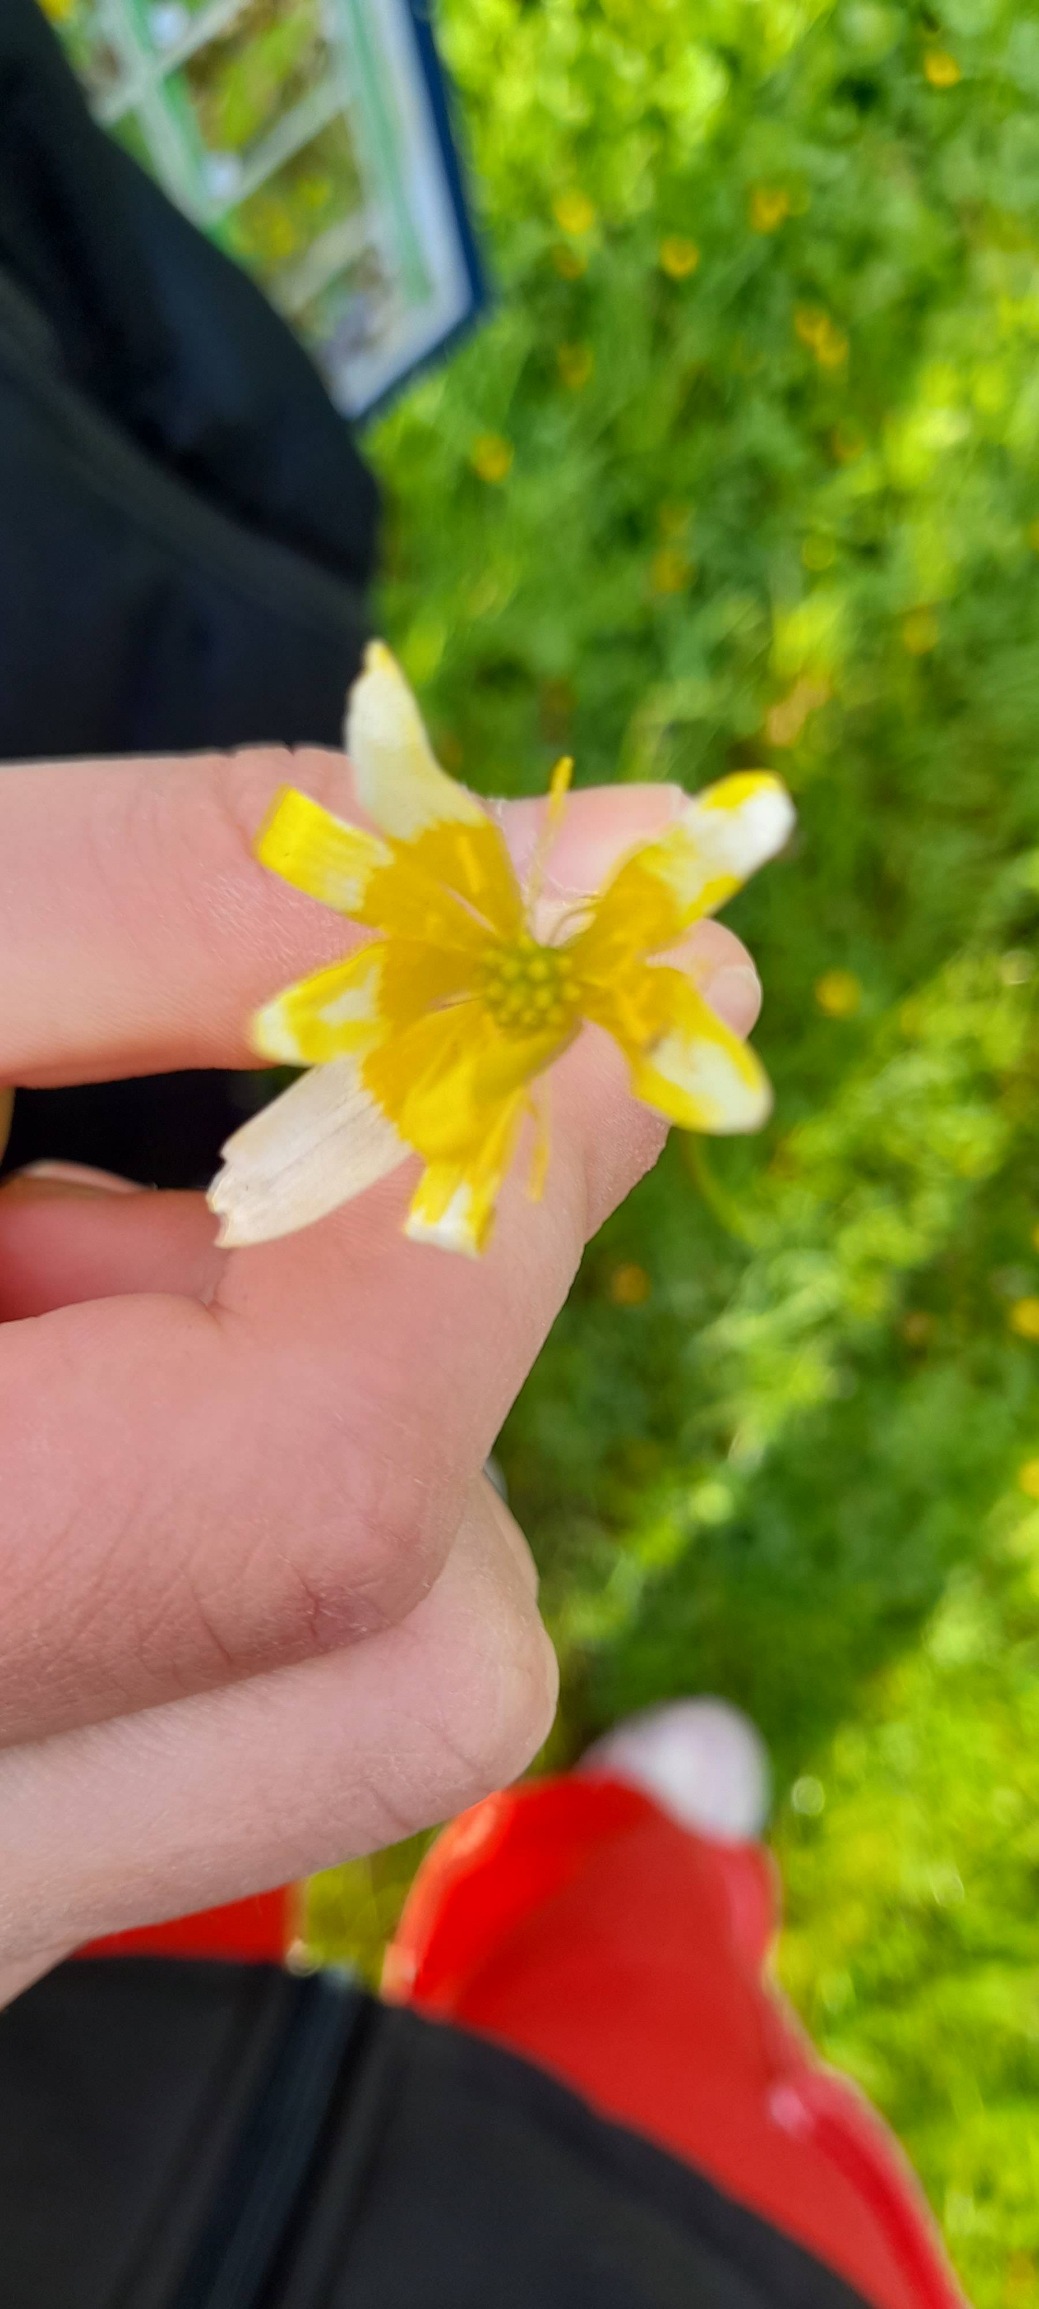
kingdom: Plantae
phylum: Tracheophyta
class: Magnoliopsida
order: Ranunculales
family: Ranunculaceae
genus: Ficaria
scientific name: Ficaria verna
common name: Vorterod
